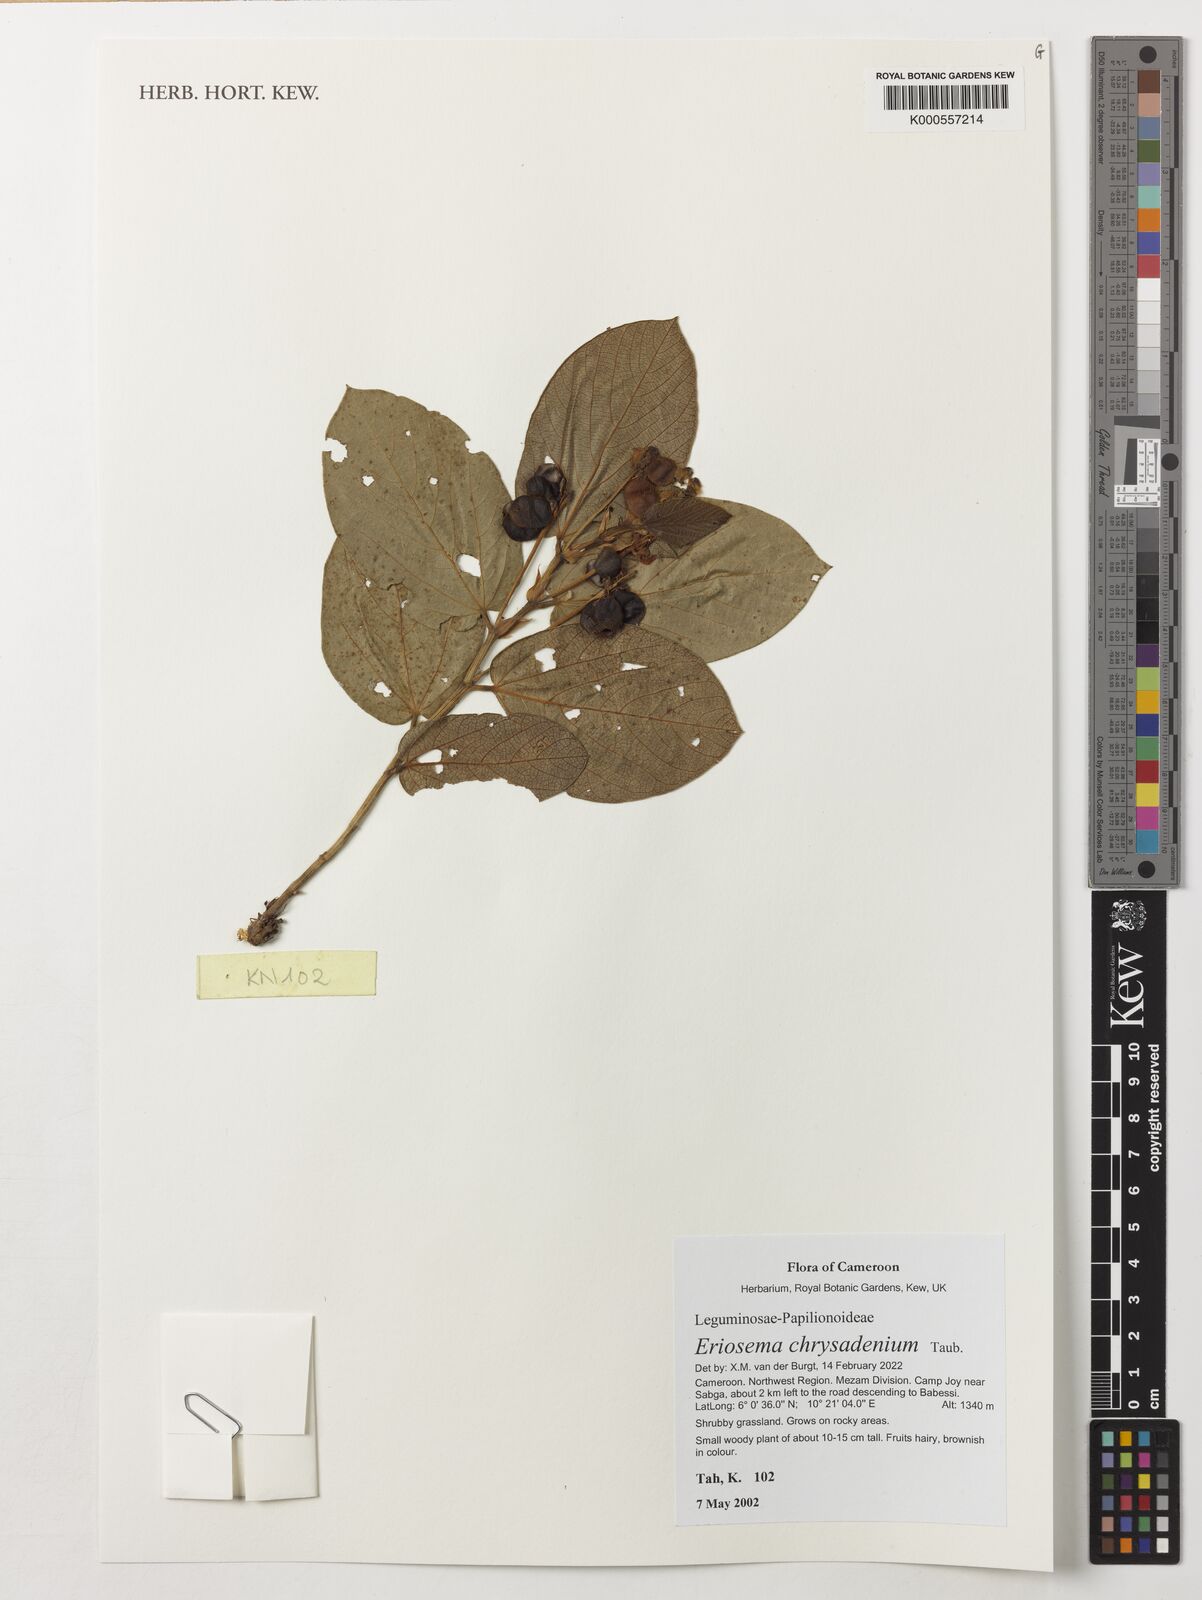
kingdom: Plantae
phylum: Tracheophyta
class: Magnoliopsida
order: Fabales
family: Fabaceae
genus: Eriosema
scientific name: Eriosema chrysadenium
